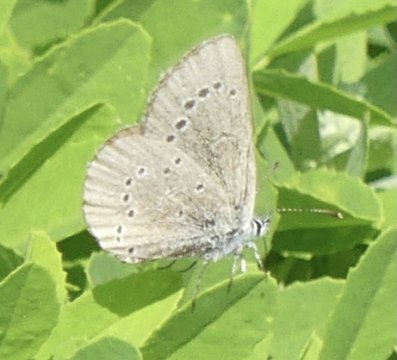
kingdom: Animalia
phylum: Arthropoda
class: Insecta
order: Lepidoptera
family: Lycaenidae
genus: Glaucopsyche
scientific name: Glaucopsyche lygdamus
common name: Silvery Blue
